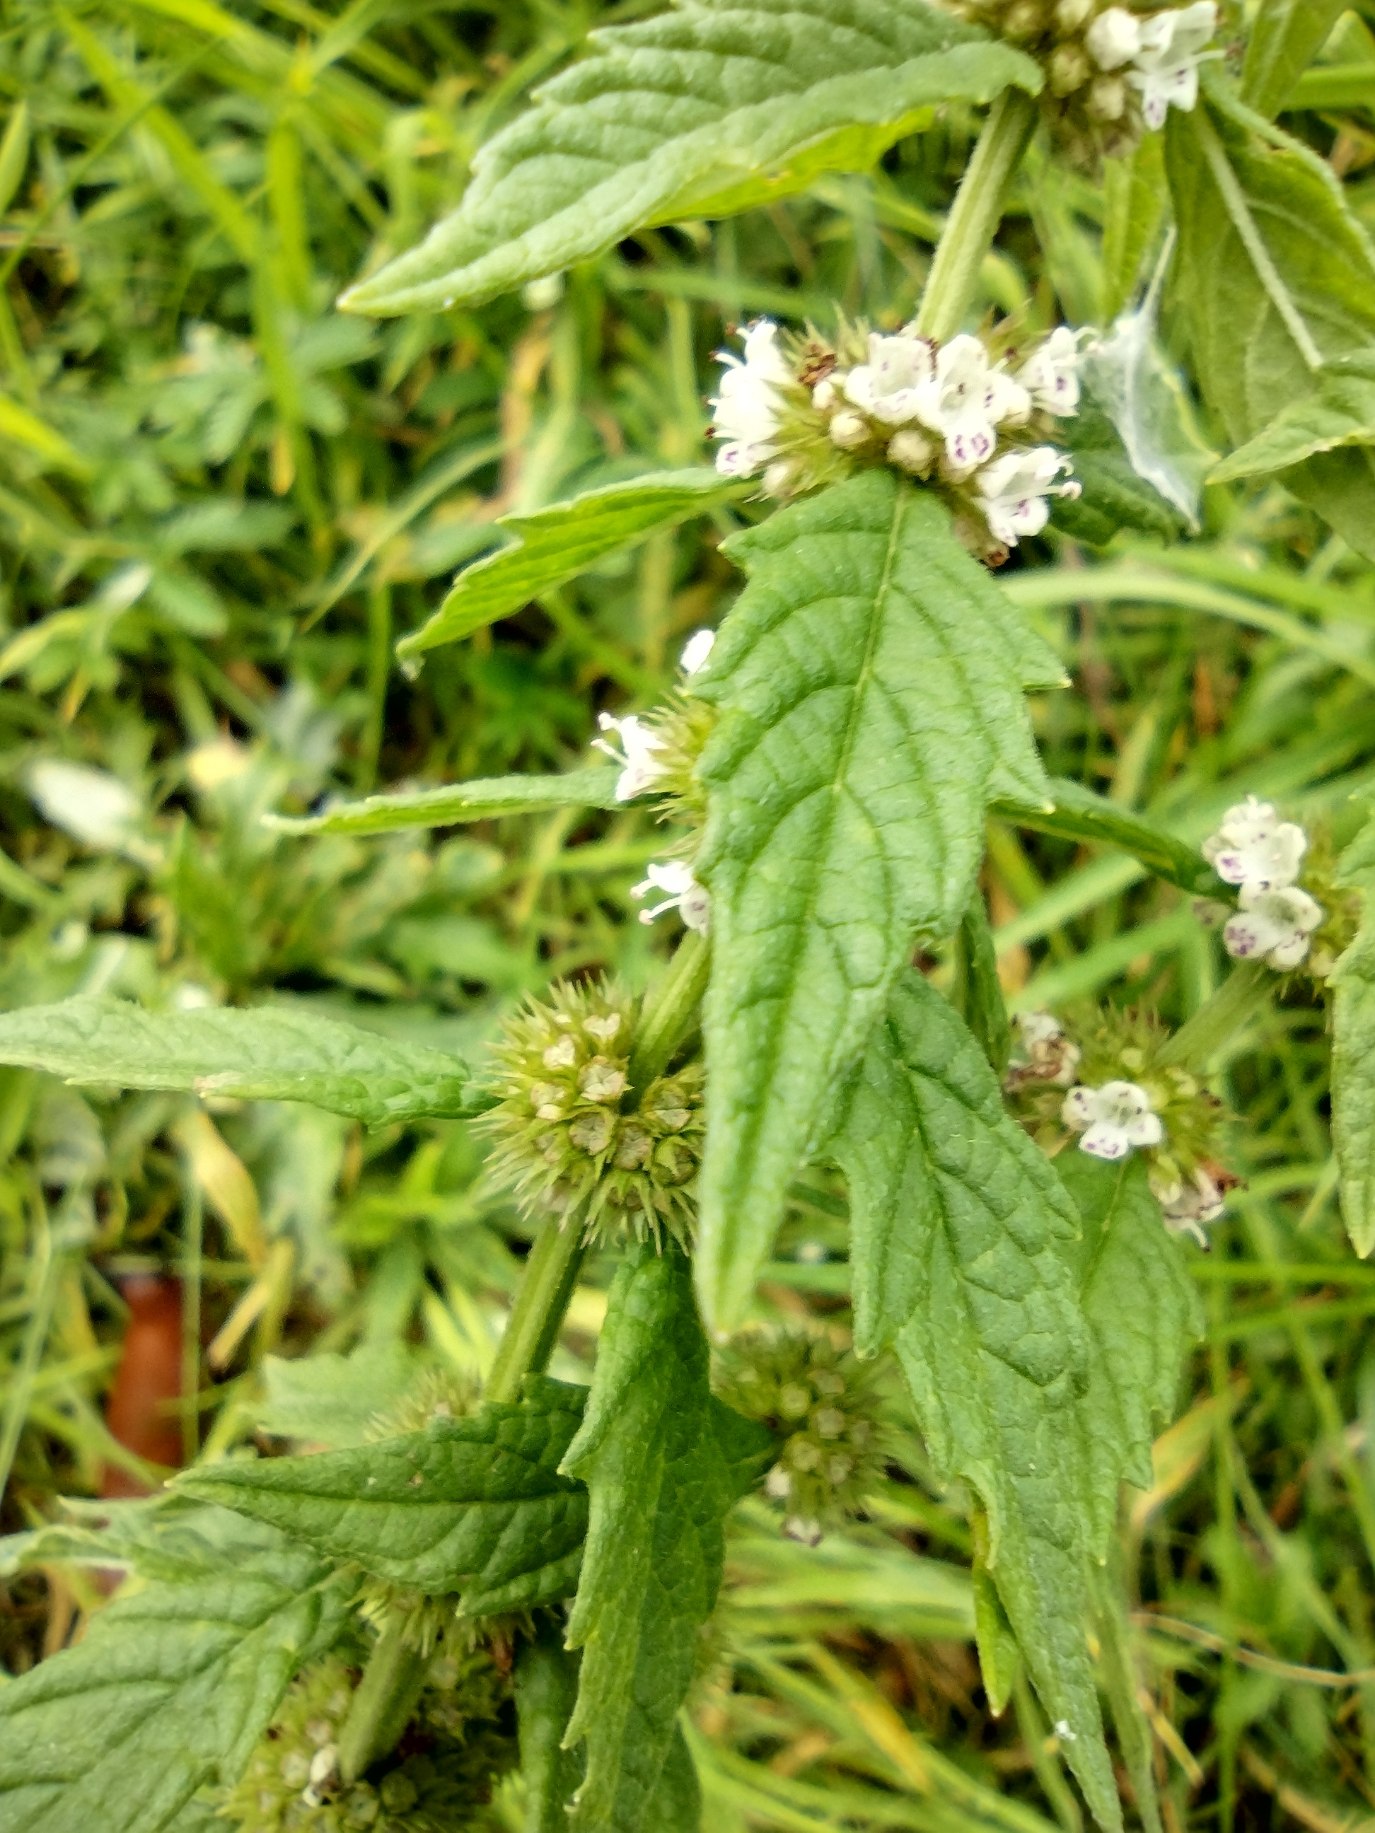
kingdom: Plantae
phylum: Tracheophyta
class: Magnoliopsida
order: Lamiales
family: Lamiaceae
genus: Lycopus
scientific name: Lycopus europaeus
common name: Sværtevæld
